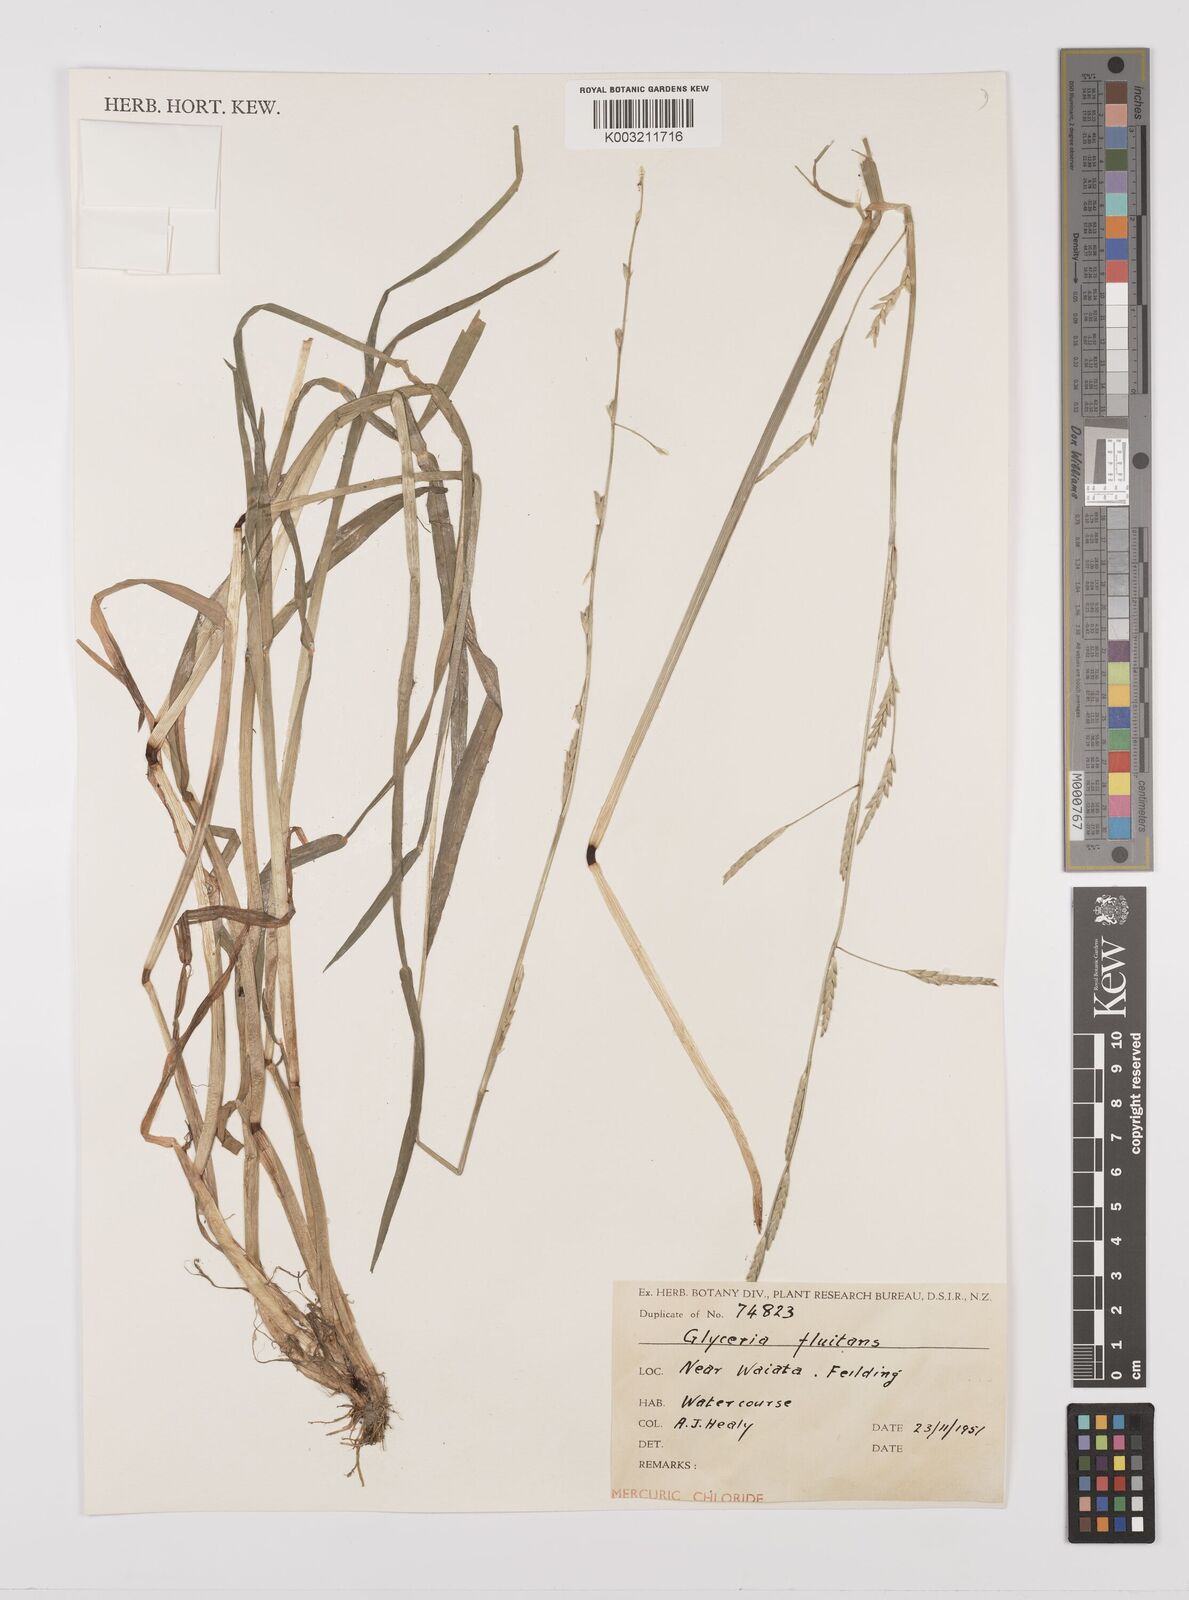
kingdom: Plantae
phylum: Tracheophyta
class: Liliopsida
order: Poales
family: Poaceae
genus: Glyceria
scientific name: Glyceria fluitans
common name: Floating sweet-grass
